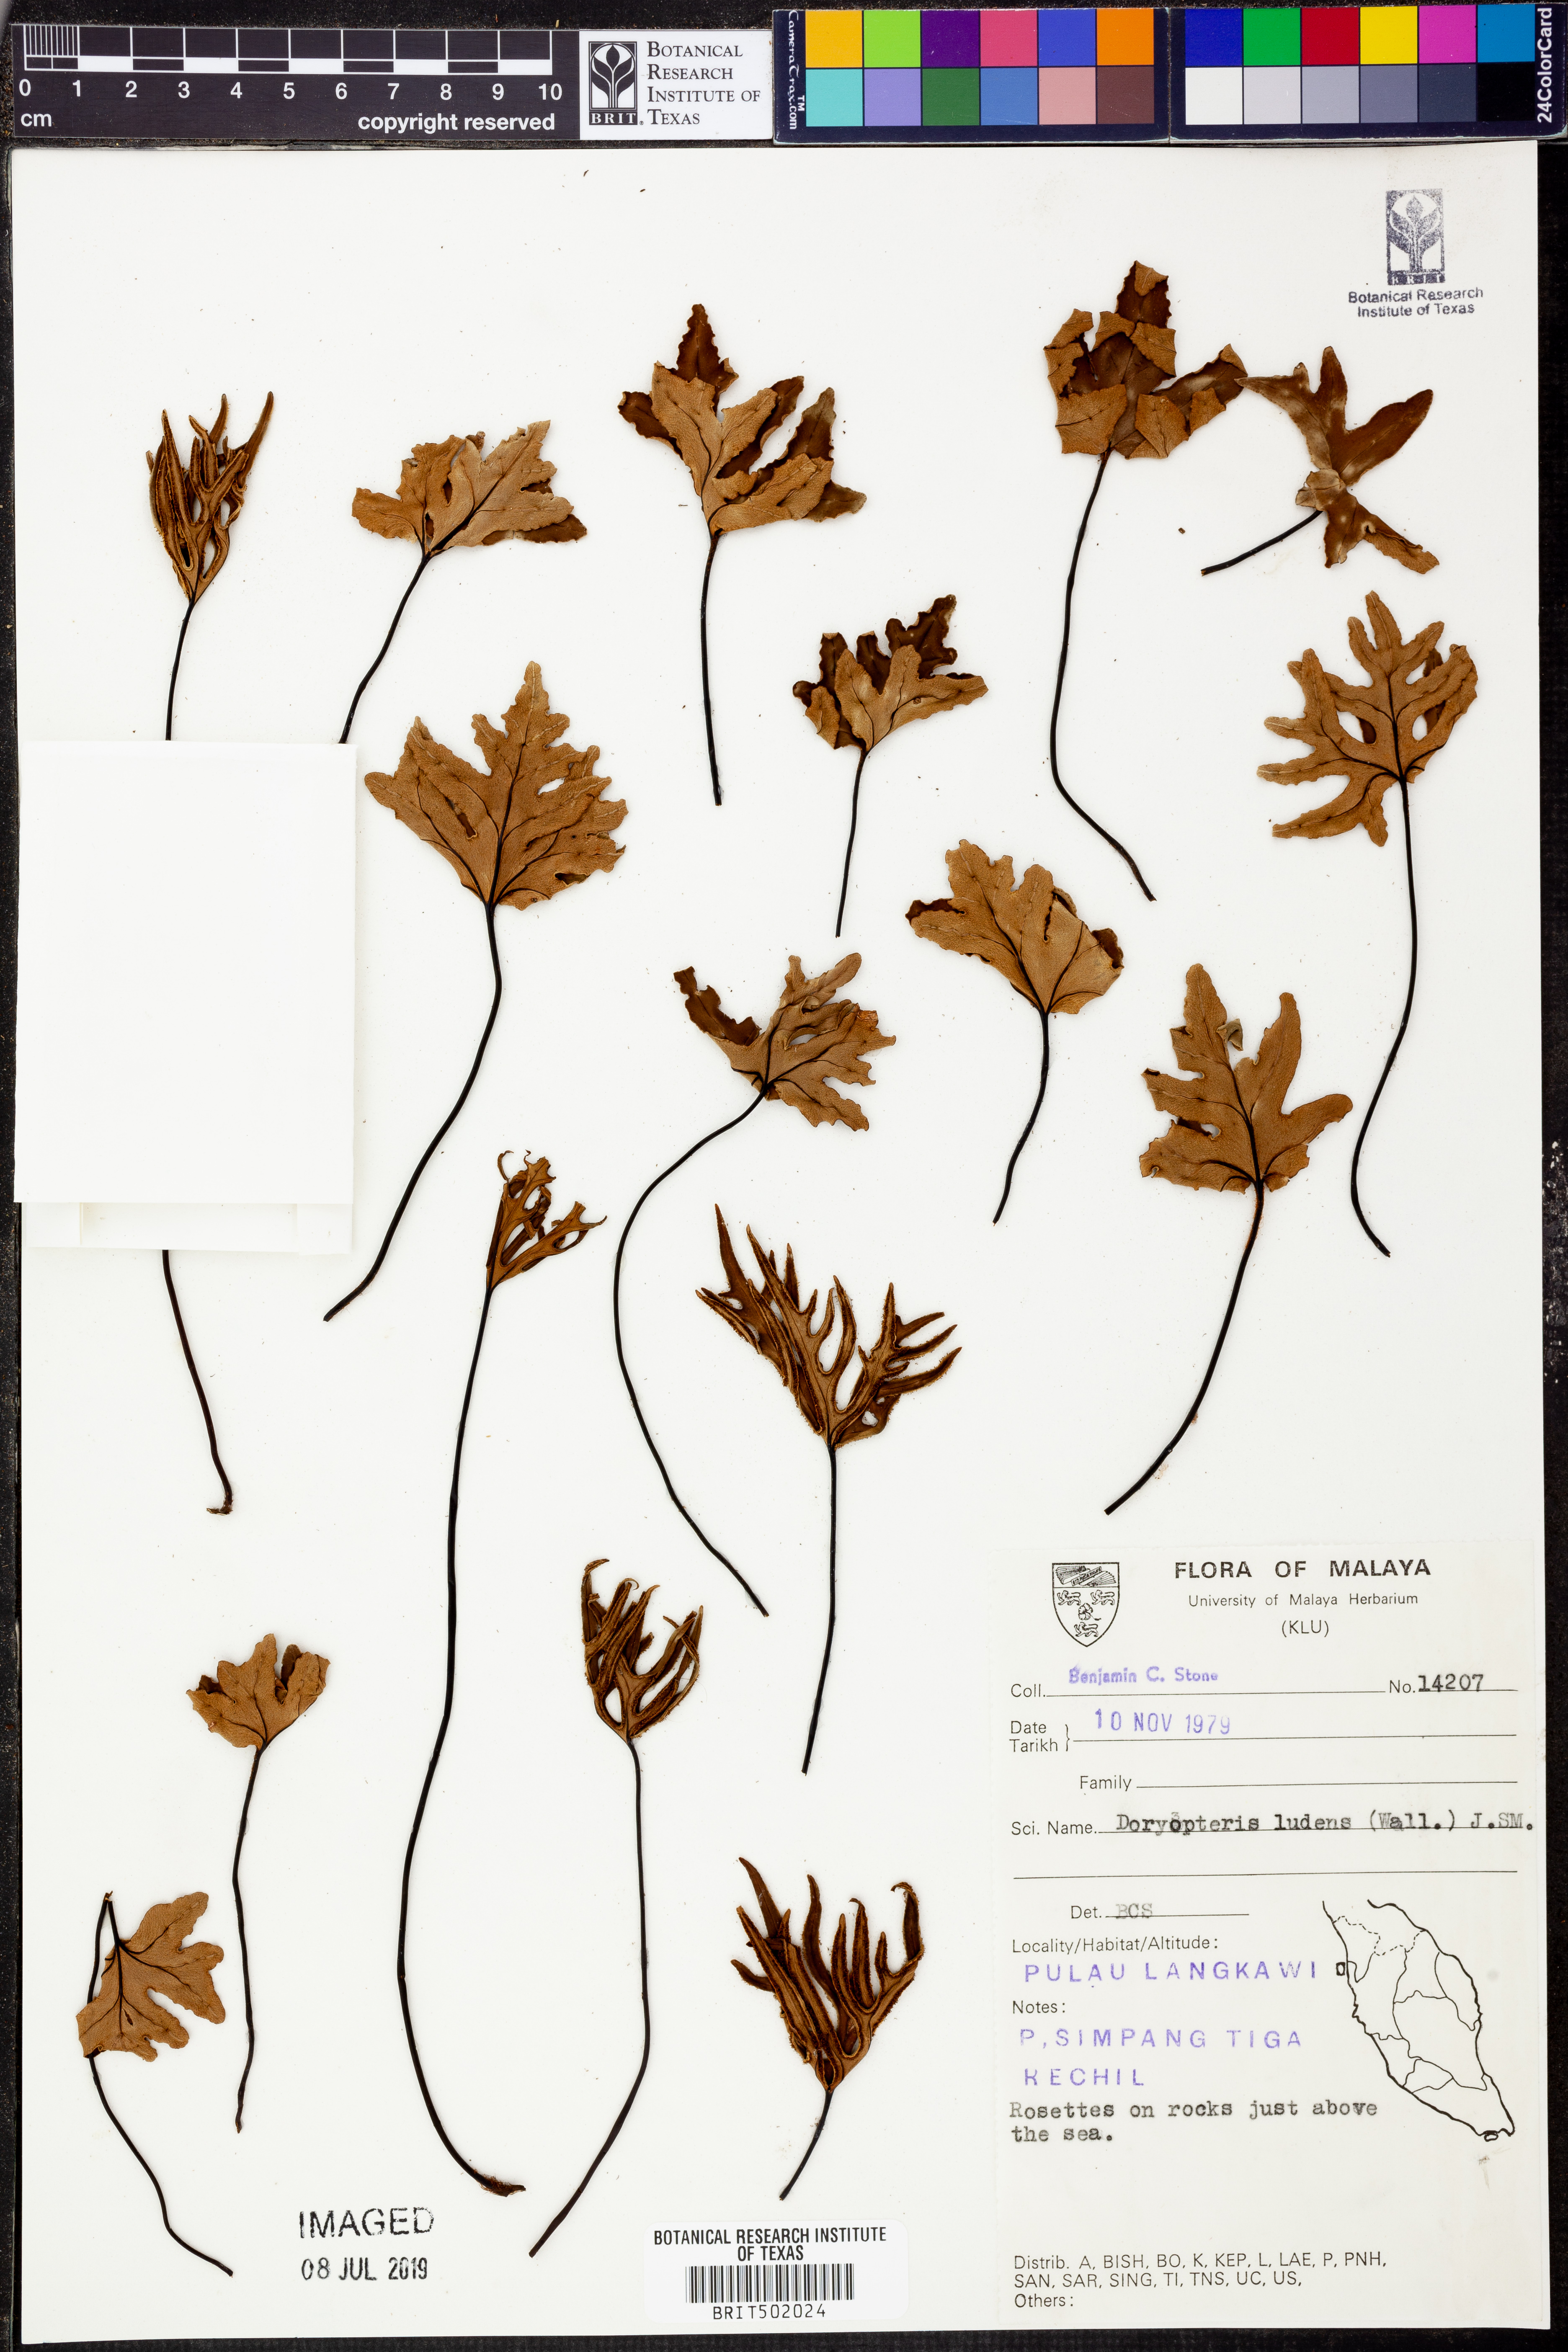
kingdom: Plantae
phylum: Tracheophyta
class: Polypodiopsida
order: Polypodiales
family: Pteridaceae
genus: Calciphilopteris
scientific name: Calciphilopteris ludens
